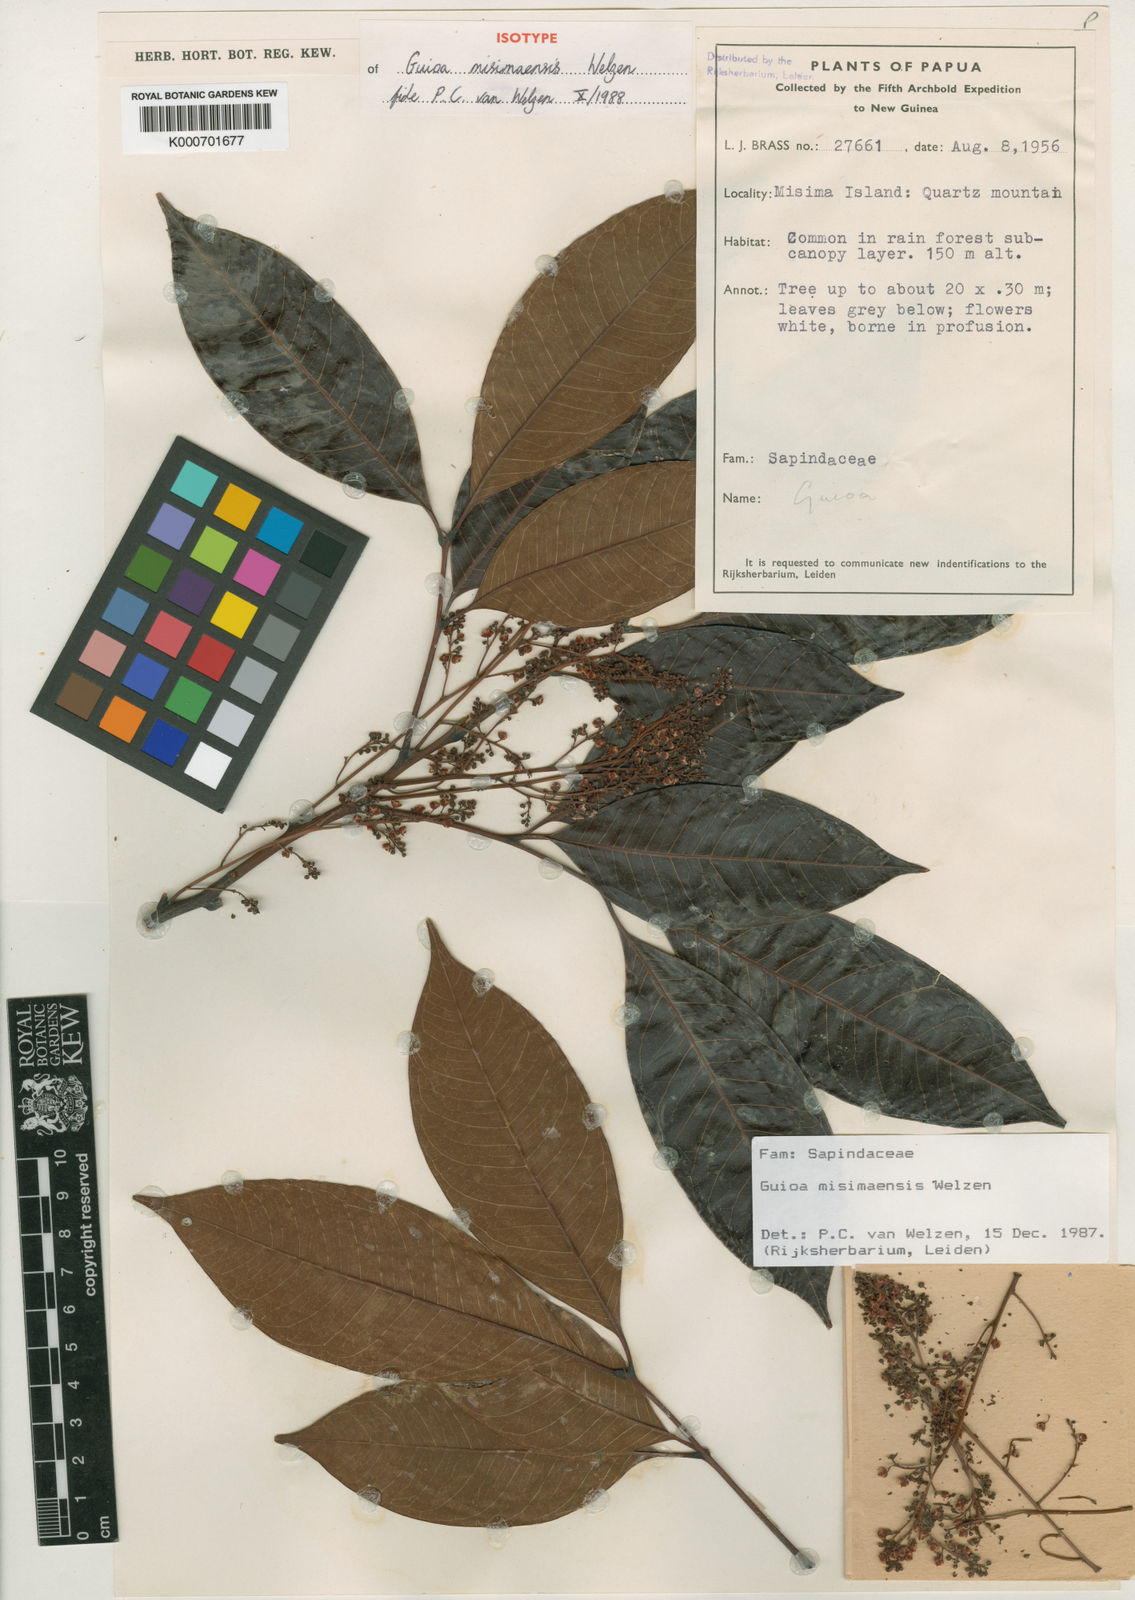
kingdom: Plantae
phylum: Tracheophyta
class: Magnoliopsida
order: Sapindales
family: Sapindaceae
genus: Guioa
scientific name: Guioa misimaensis
